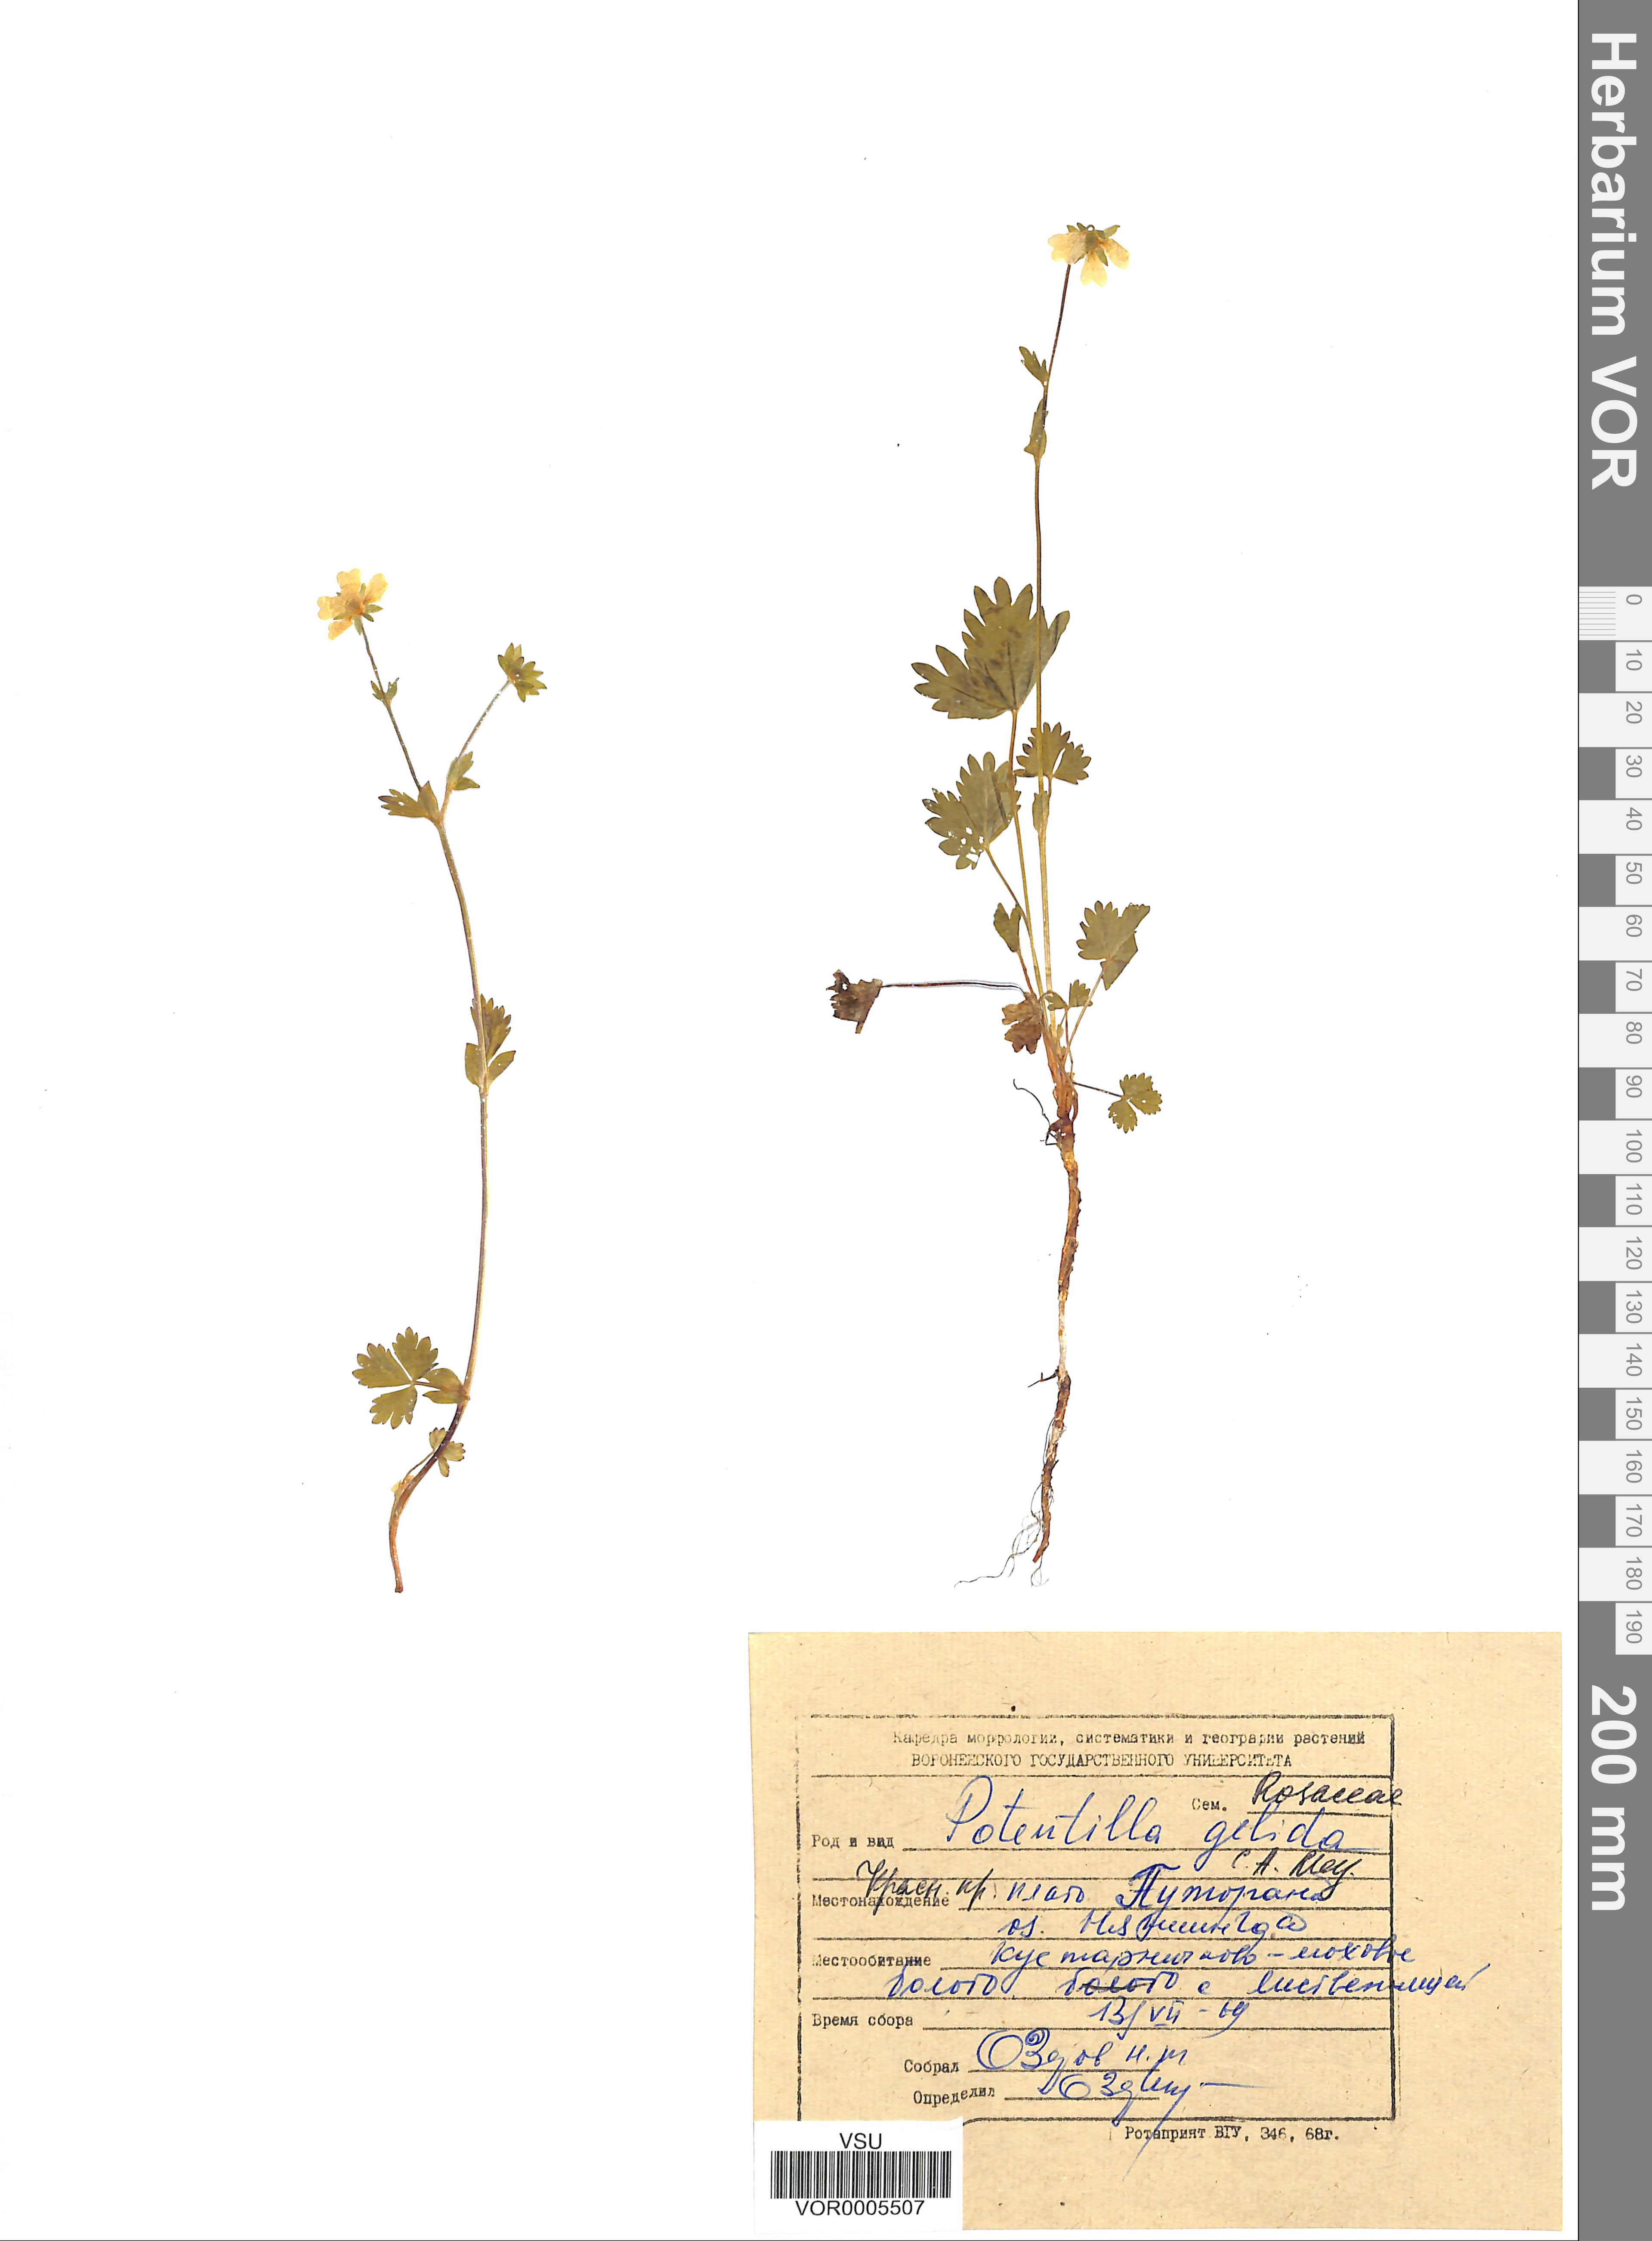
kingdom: Plantae
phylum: Tracheophyta
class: Magnoliopsida
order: Rosales
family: Rosaceae
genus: Potentilla
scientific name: Potentilla crantzii
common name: Alpine cinquefoil
